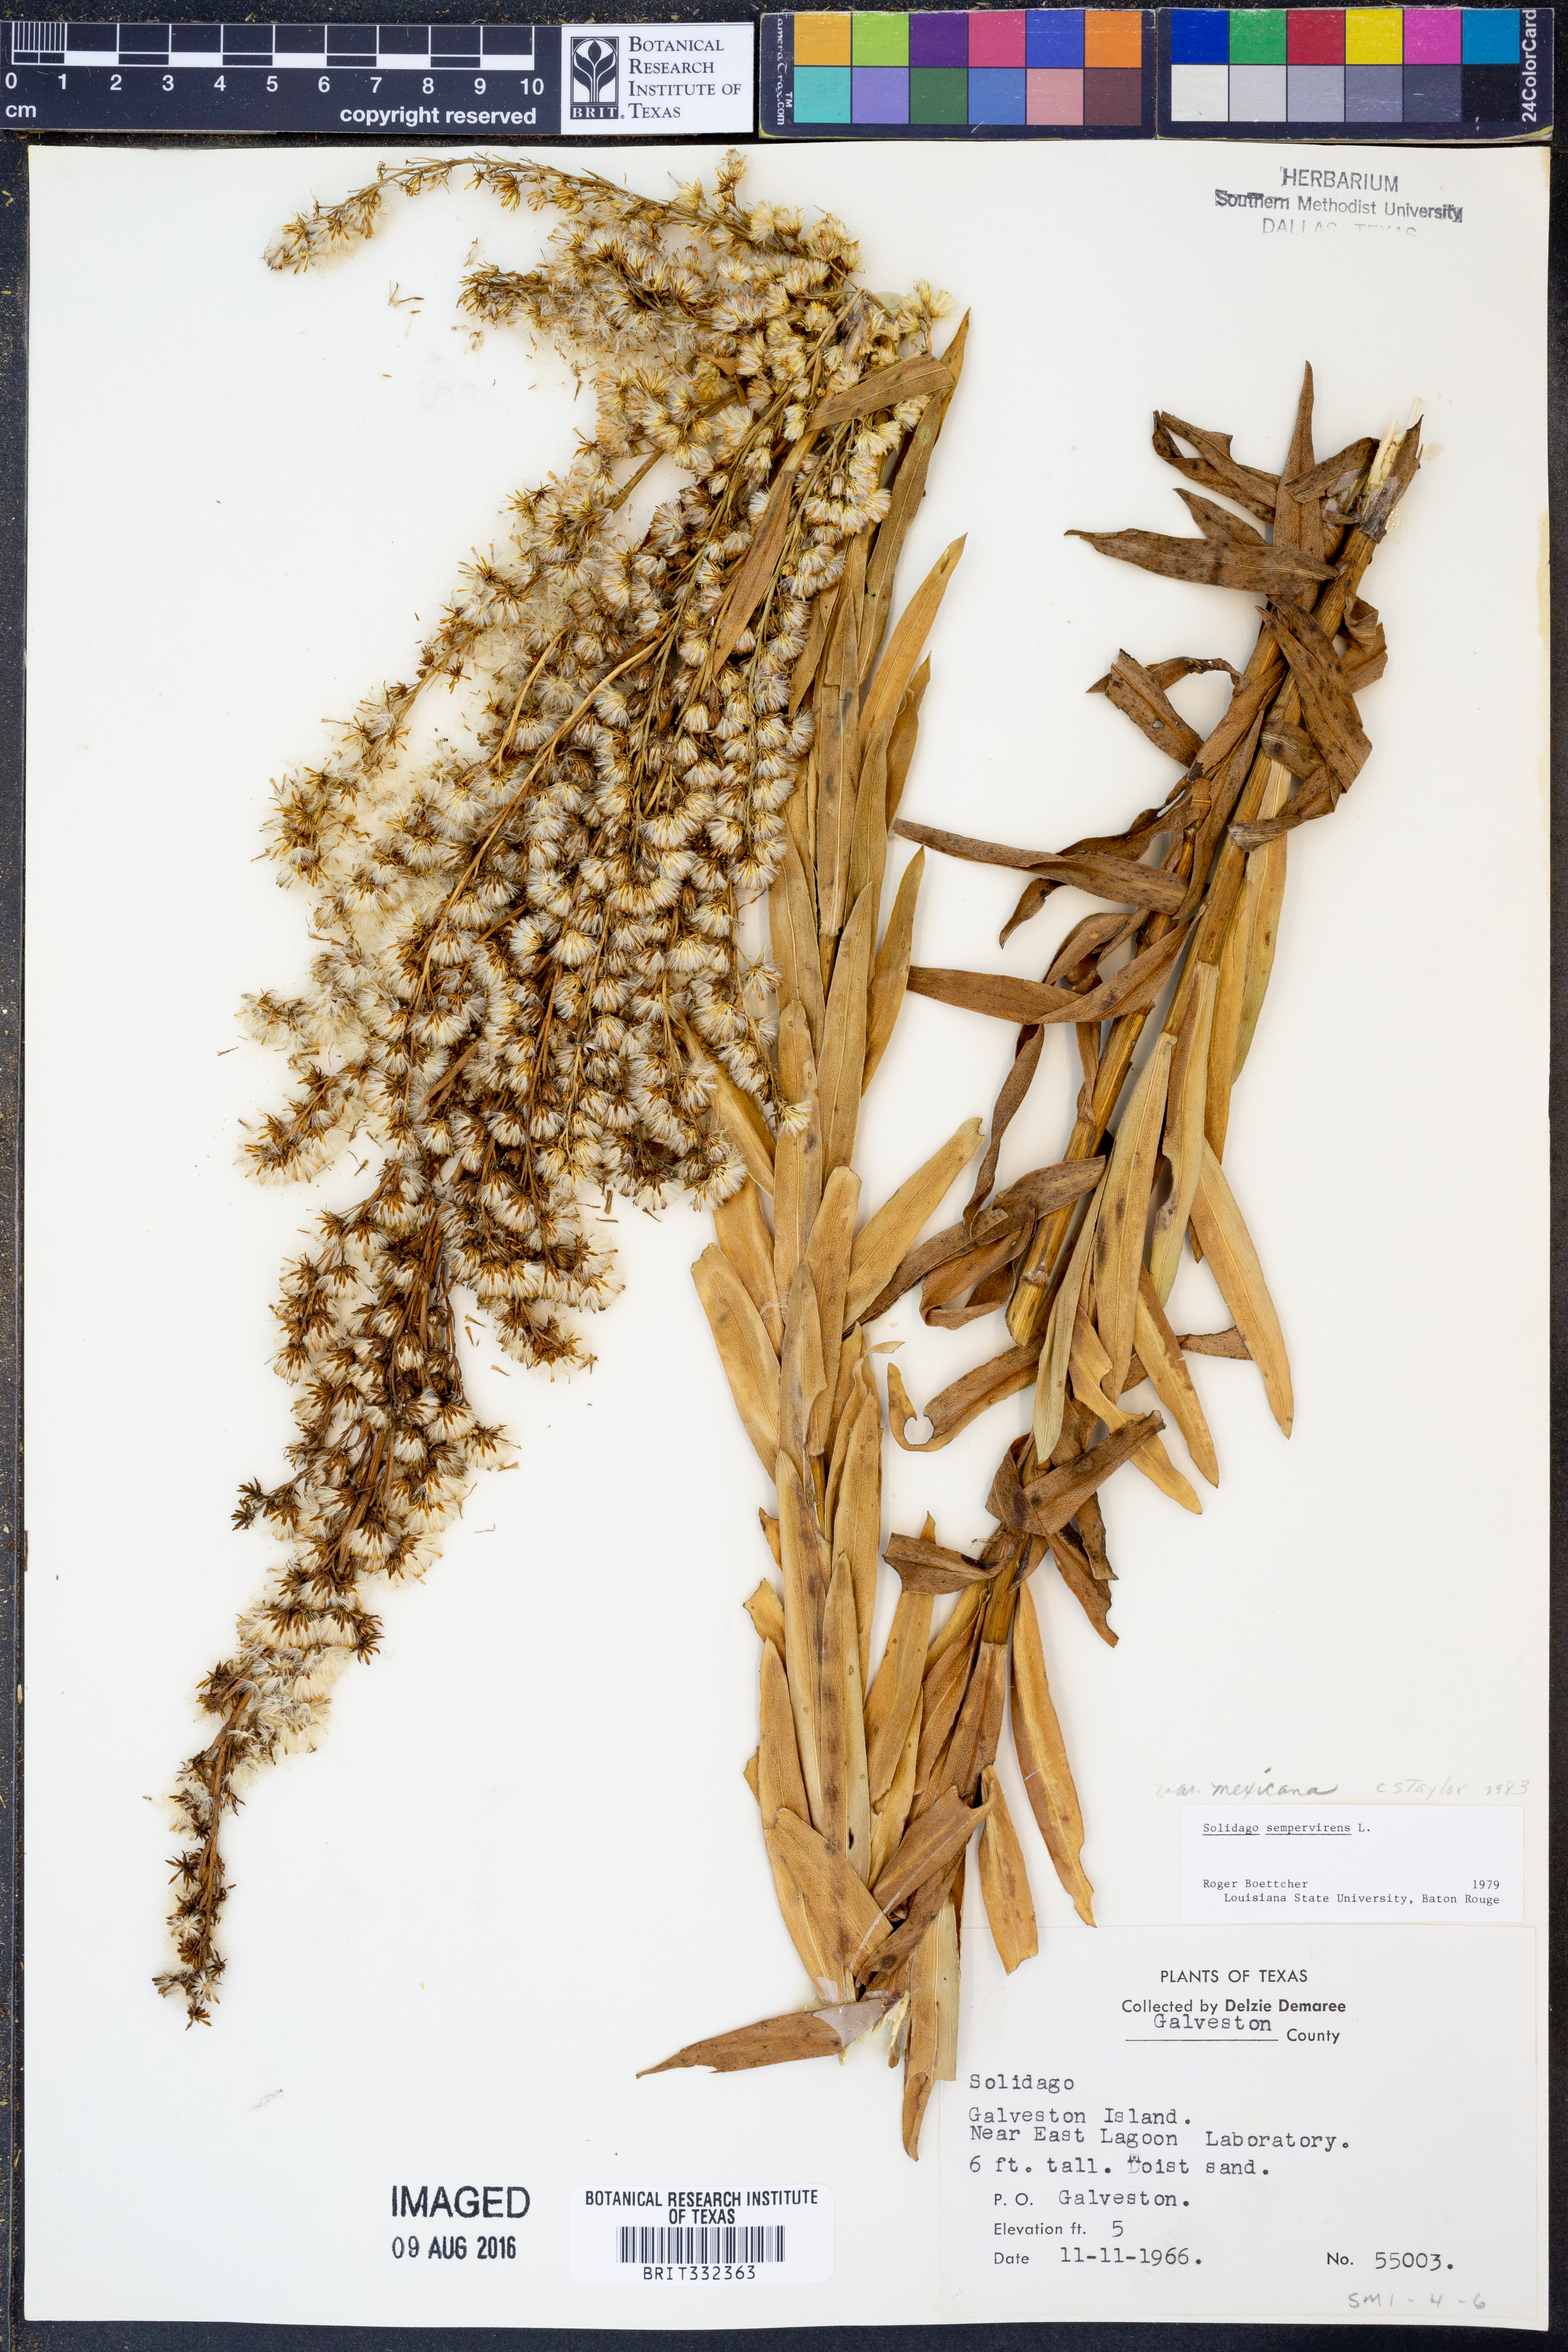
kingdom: Plantae
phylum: Tracheophyta
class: Magnoliopsida
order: Asterales
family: Asteraceae
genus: Solidago
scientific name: Solidago mexicana
